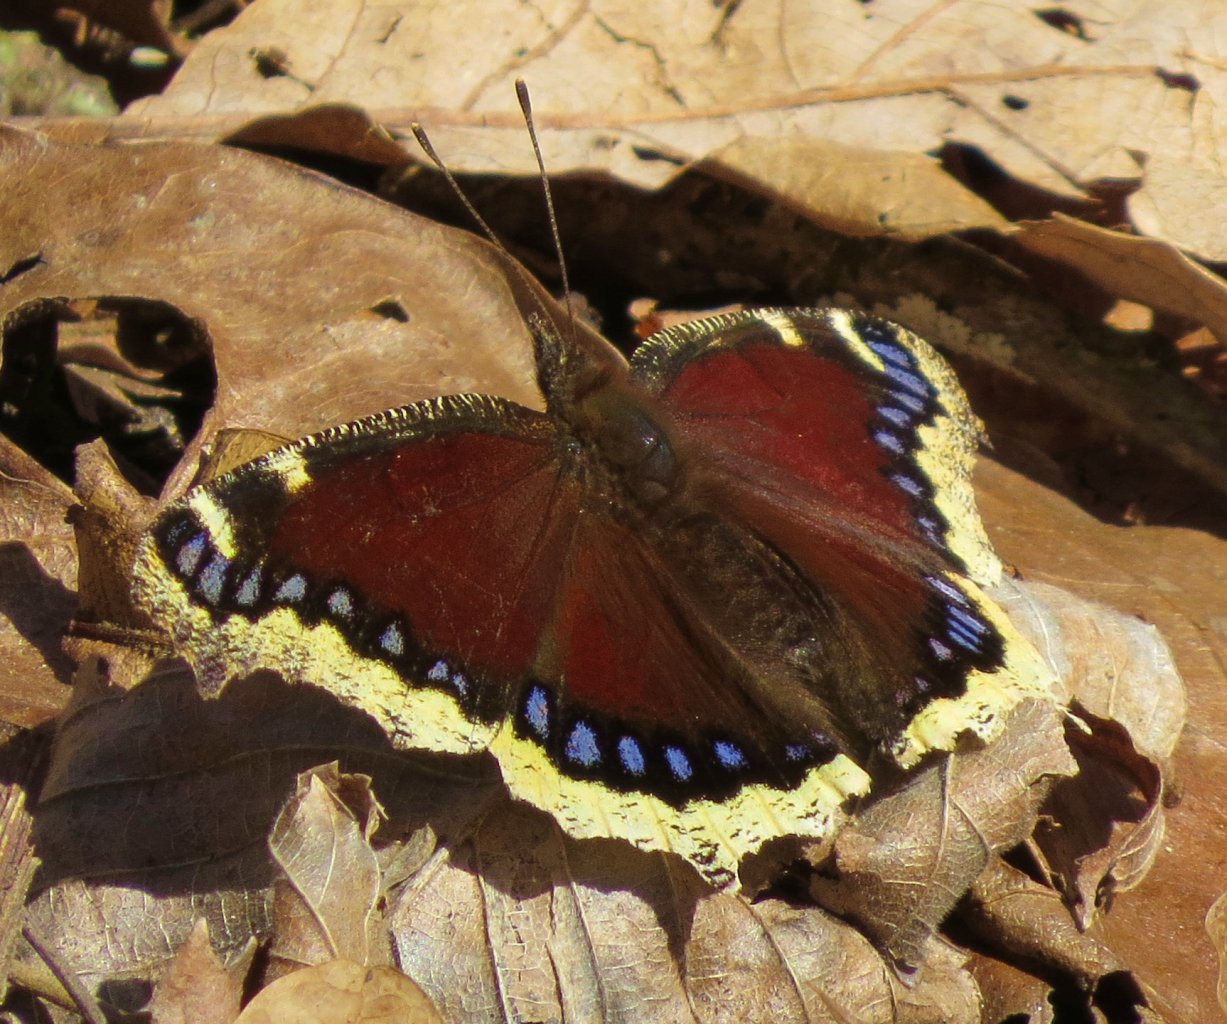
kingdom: Animalia
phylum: Arthropoda
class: Insecta
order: Lepidoptera
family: Nymphalidae
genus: Nymphalis
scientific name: Nymphalis antiopa
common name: Mourning Cloak
